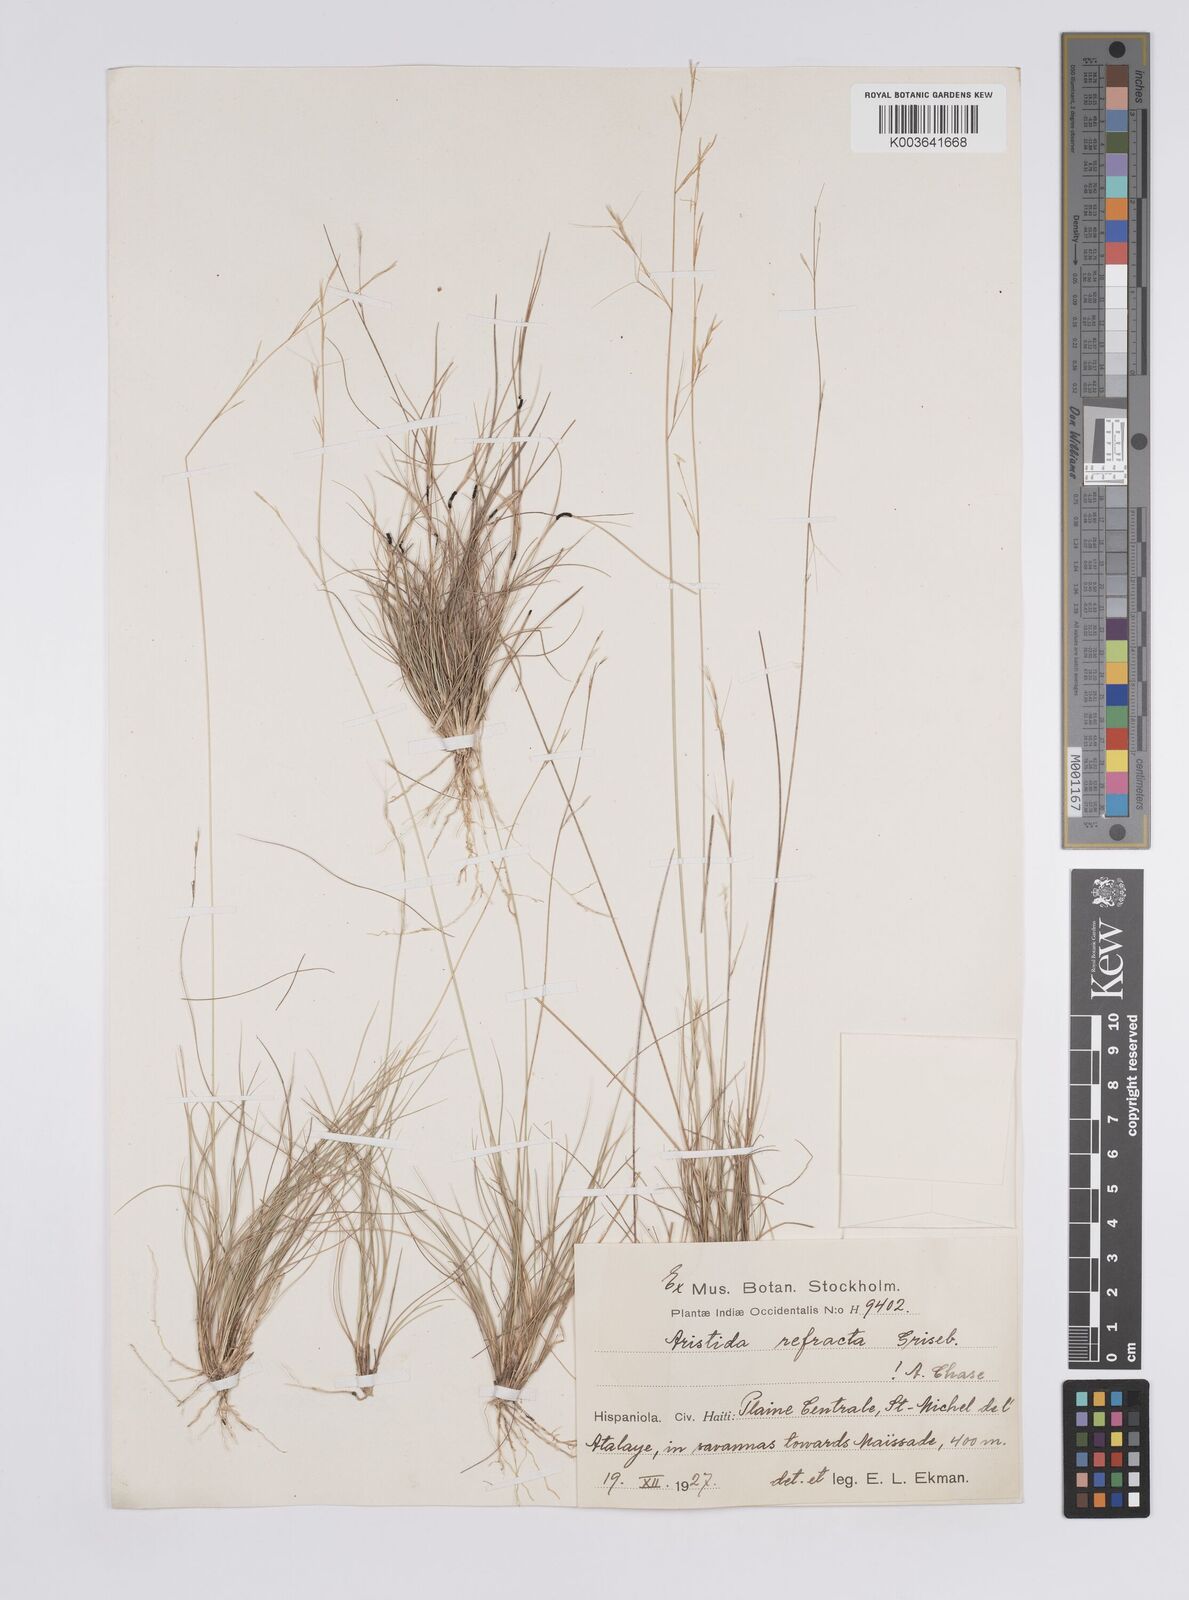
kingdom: Plantae
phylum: Tracheophyta
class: Liliopsida
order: Poales
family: Poaceae
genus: Aristida
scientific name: Aristida refracta
